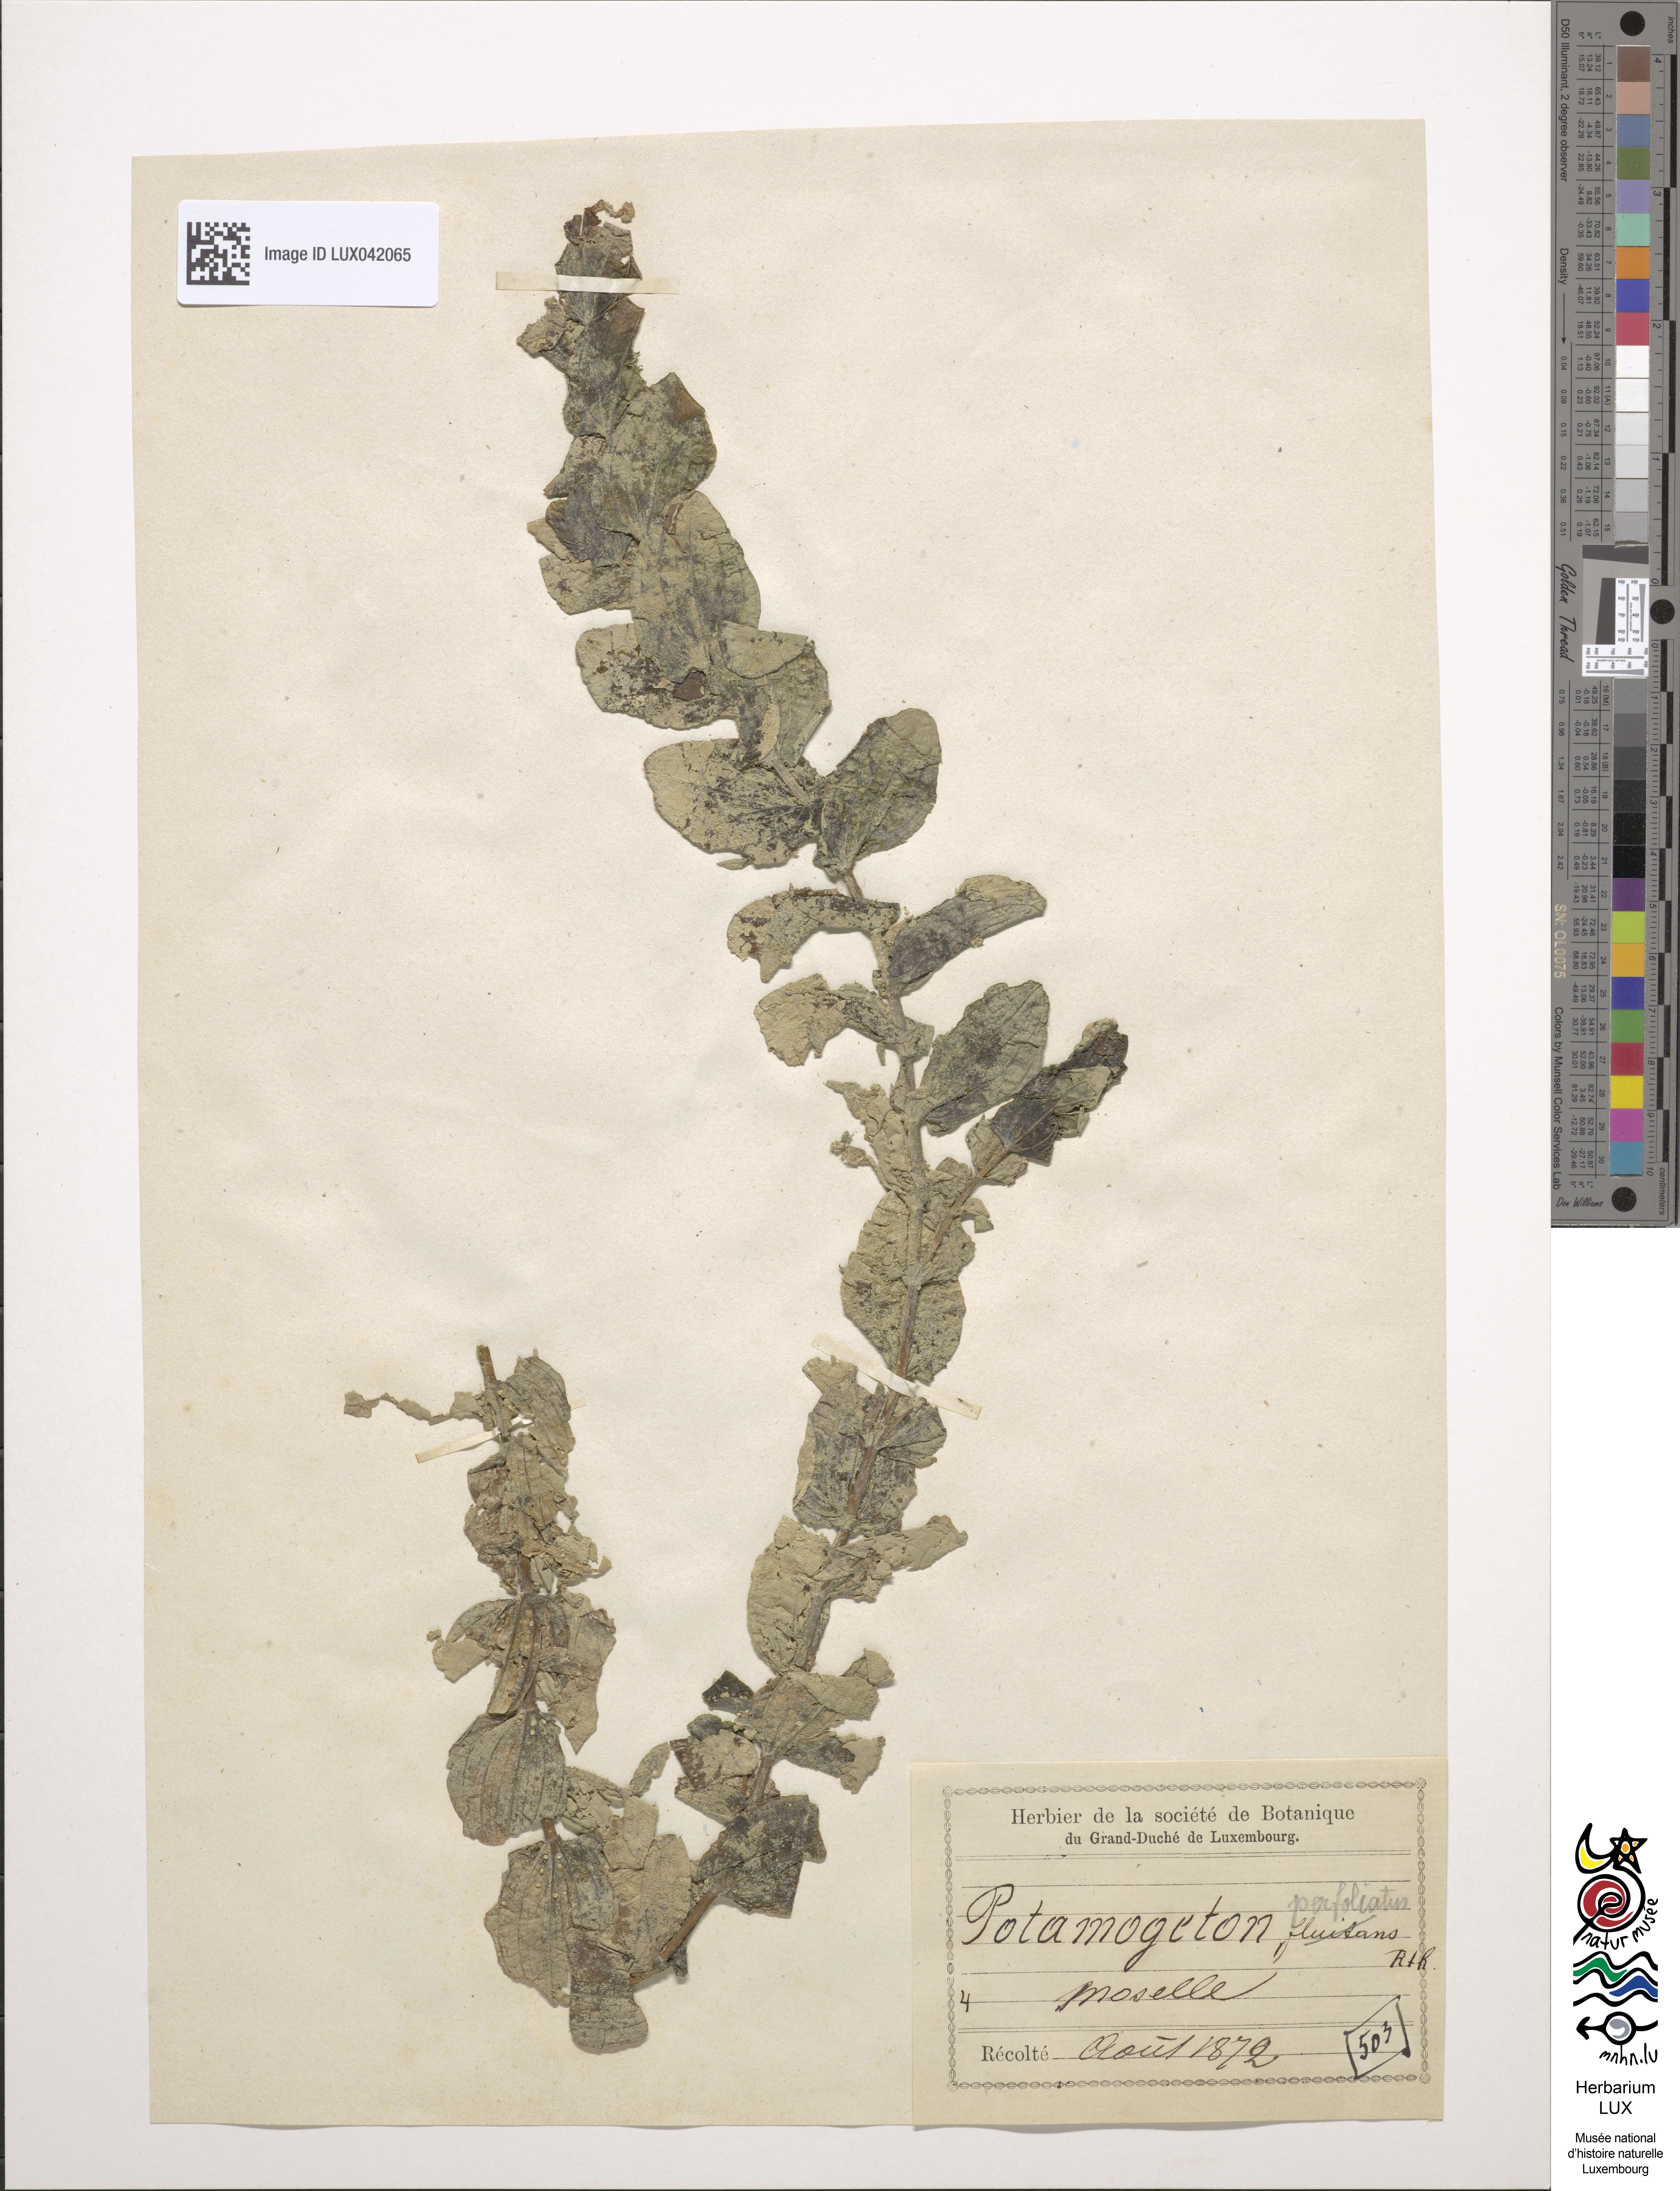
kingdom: Plantae
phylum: Tracheophyta
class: Liliopsida
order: Alismatales
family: Potamogetonaceae
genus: Potamogeton
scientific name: Potamogeton perfoliatus
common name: Perfoliate pondweed
